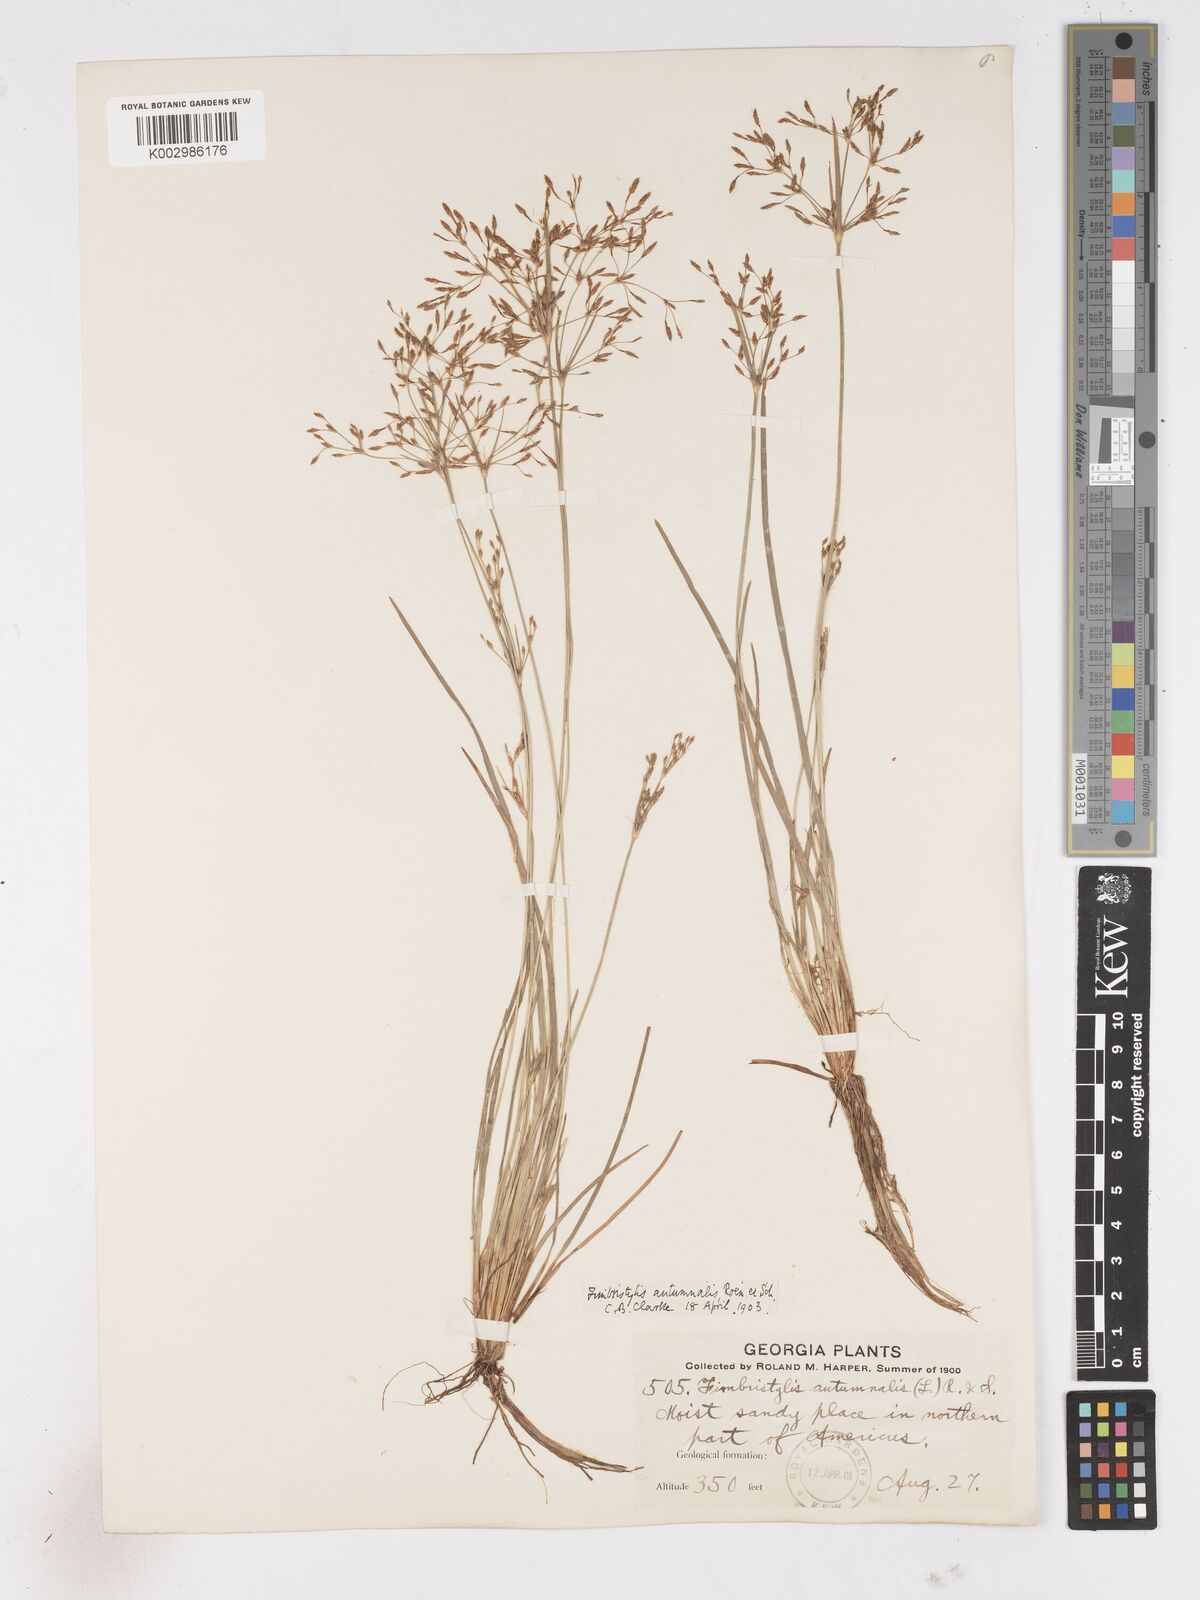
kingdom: Plantae
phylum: Tracheophyta
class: Liliopsida
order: Poales
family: Cyperaceae
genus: Fimbristylis
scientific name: Fimbristylis autumnalis
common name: Slender fimbristylis
